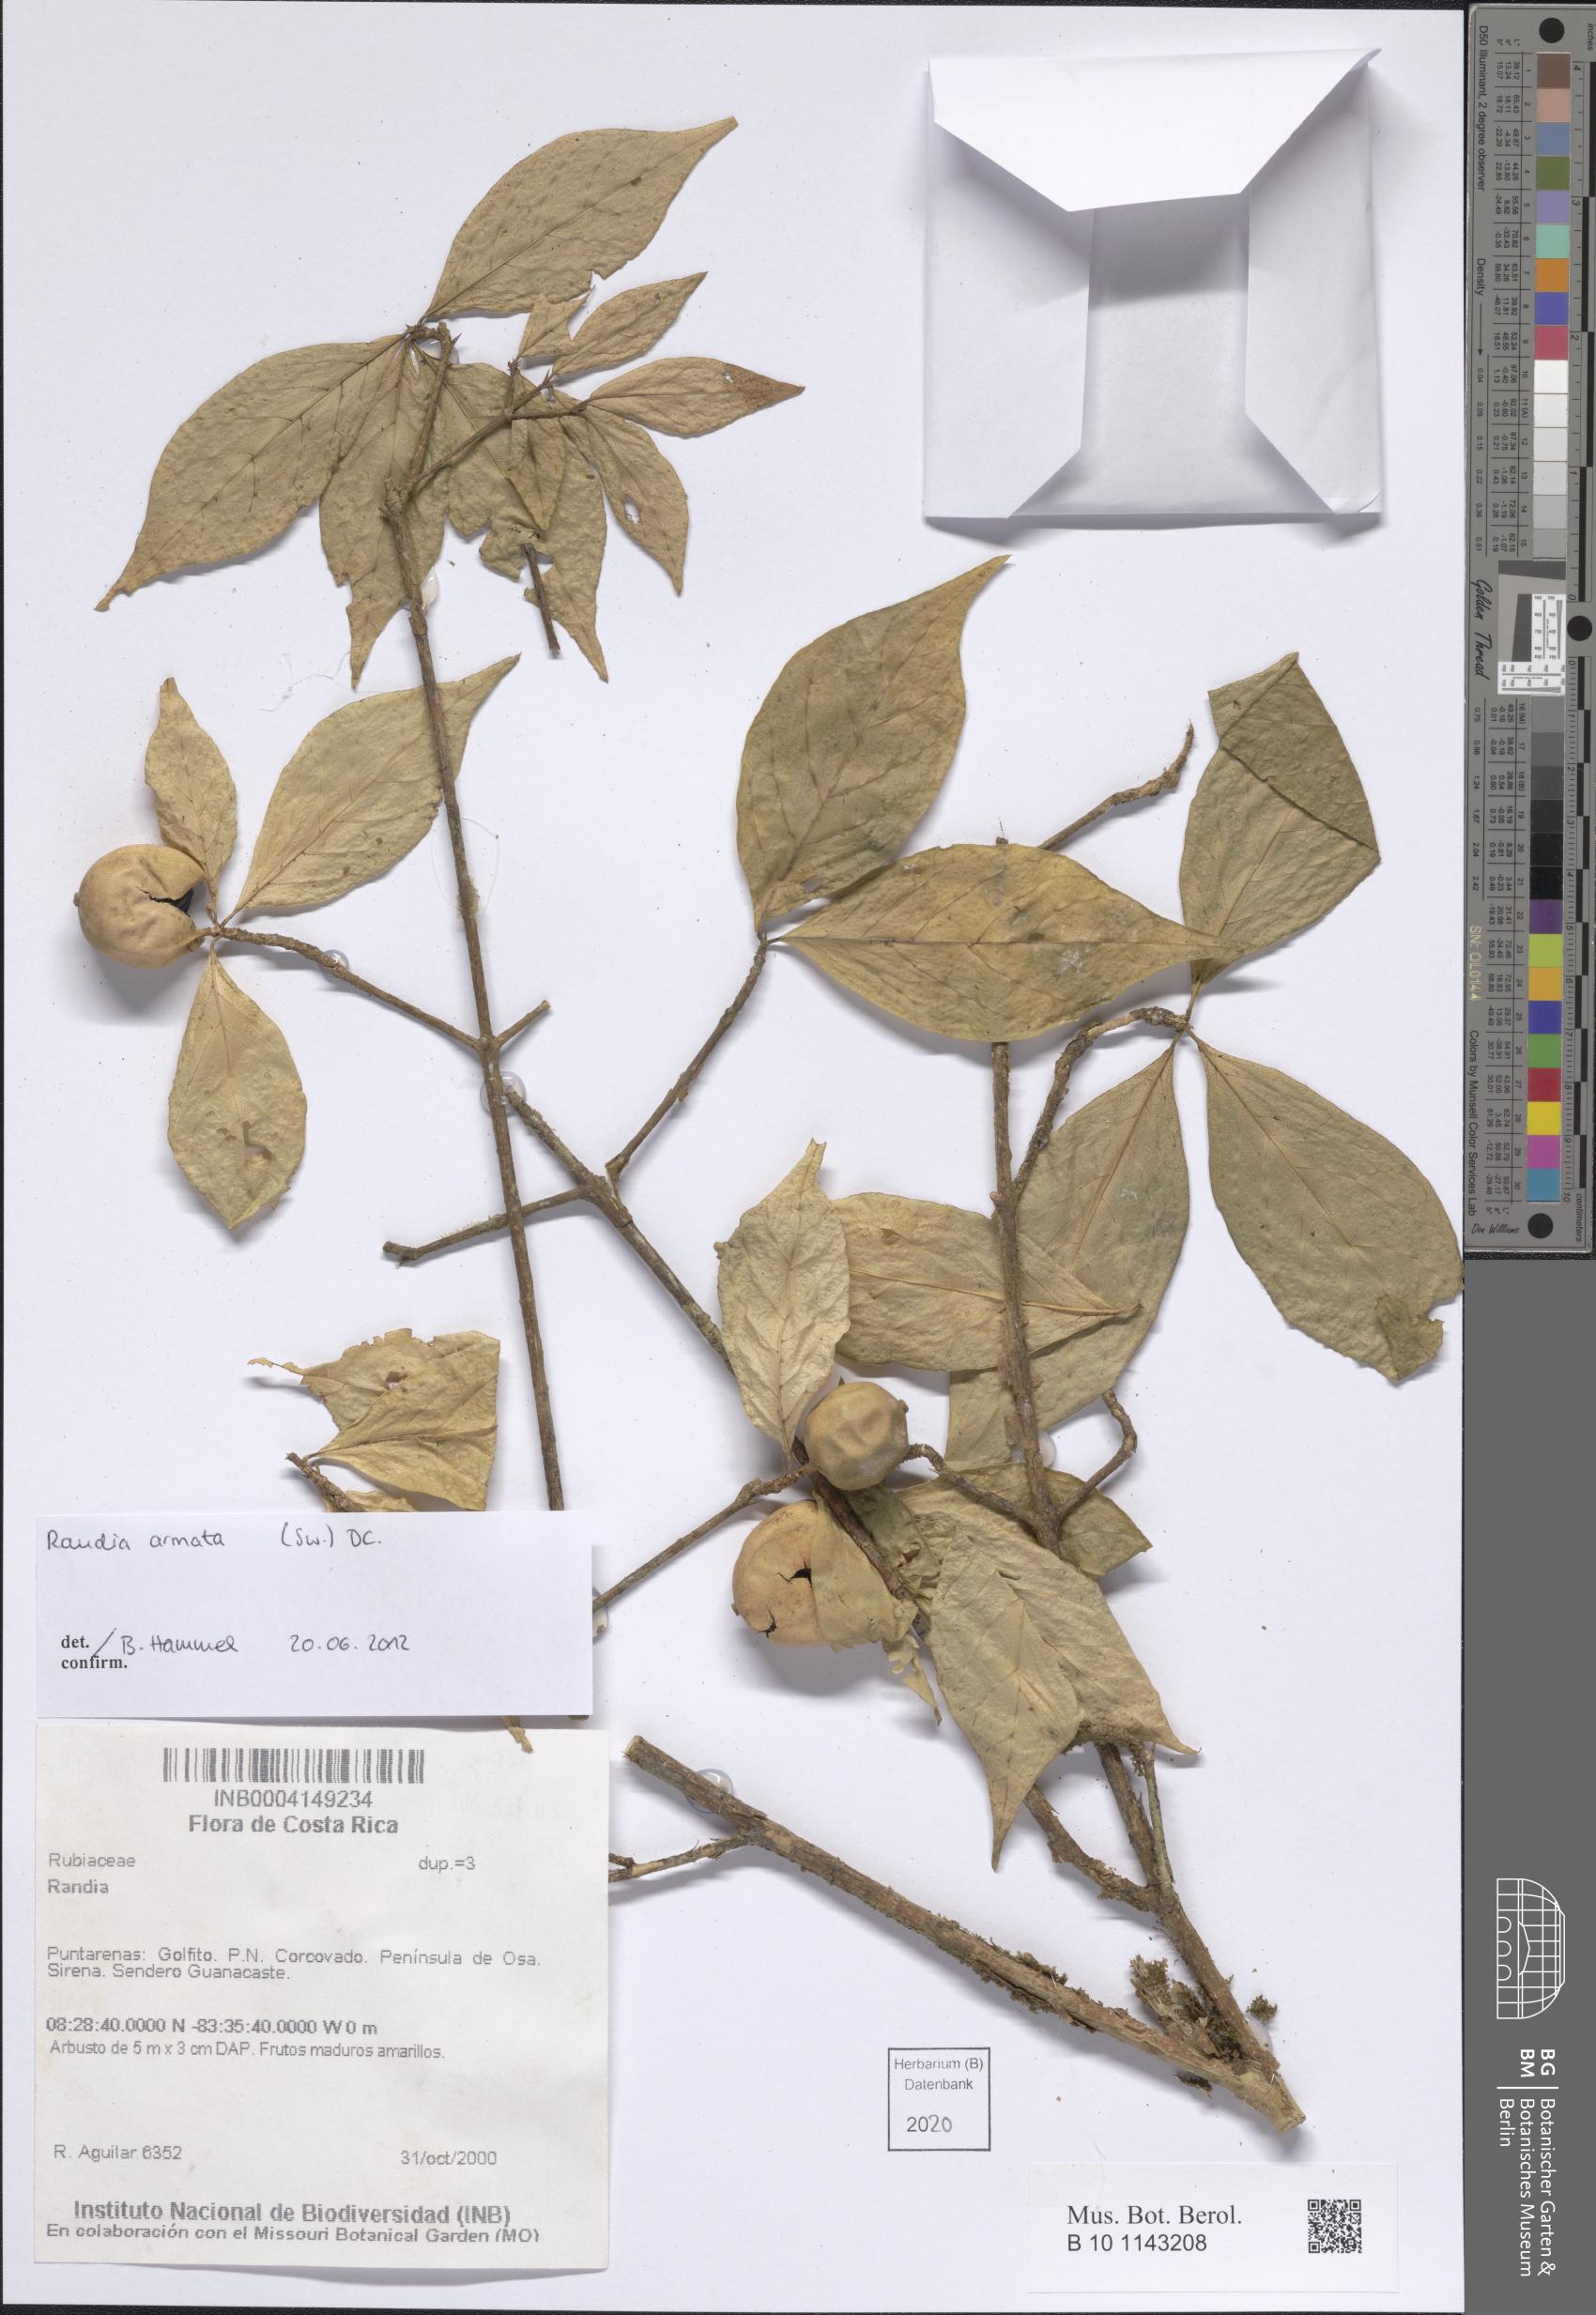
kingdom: Plantae
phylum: Tracheophyta
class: Magnoliopsida
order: Gentianales
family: Rubiaceae
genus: Randia
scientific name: Randia armata
